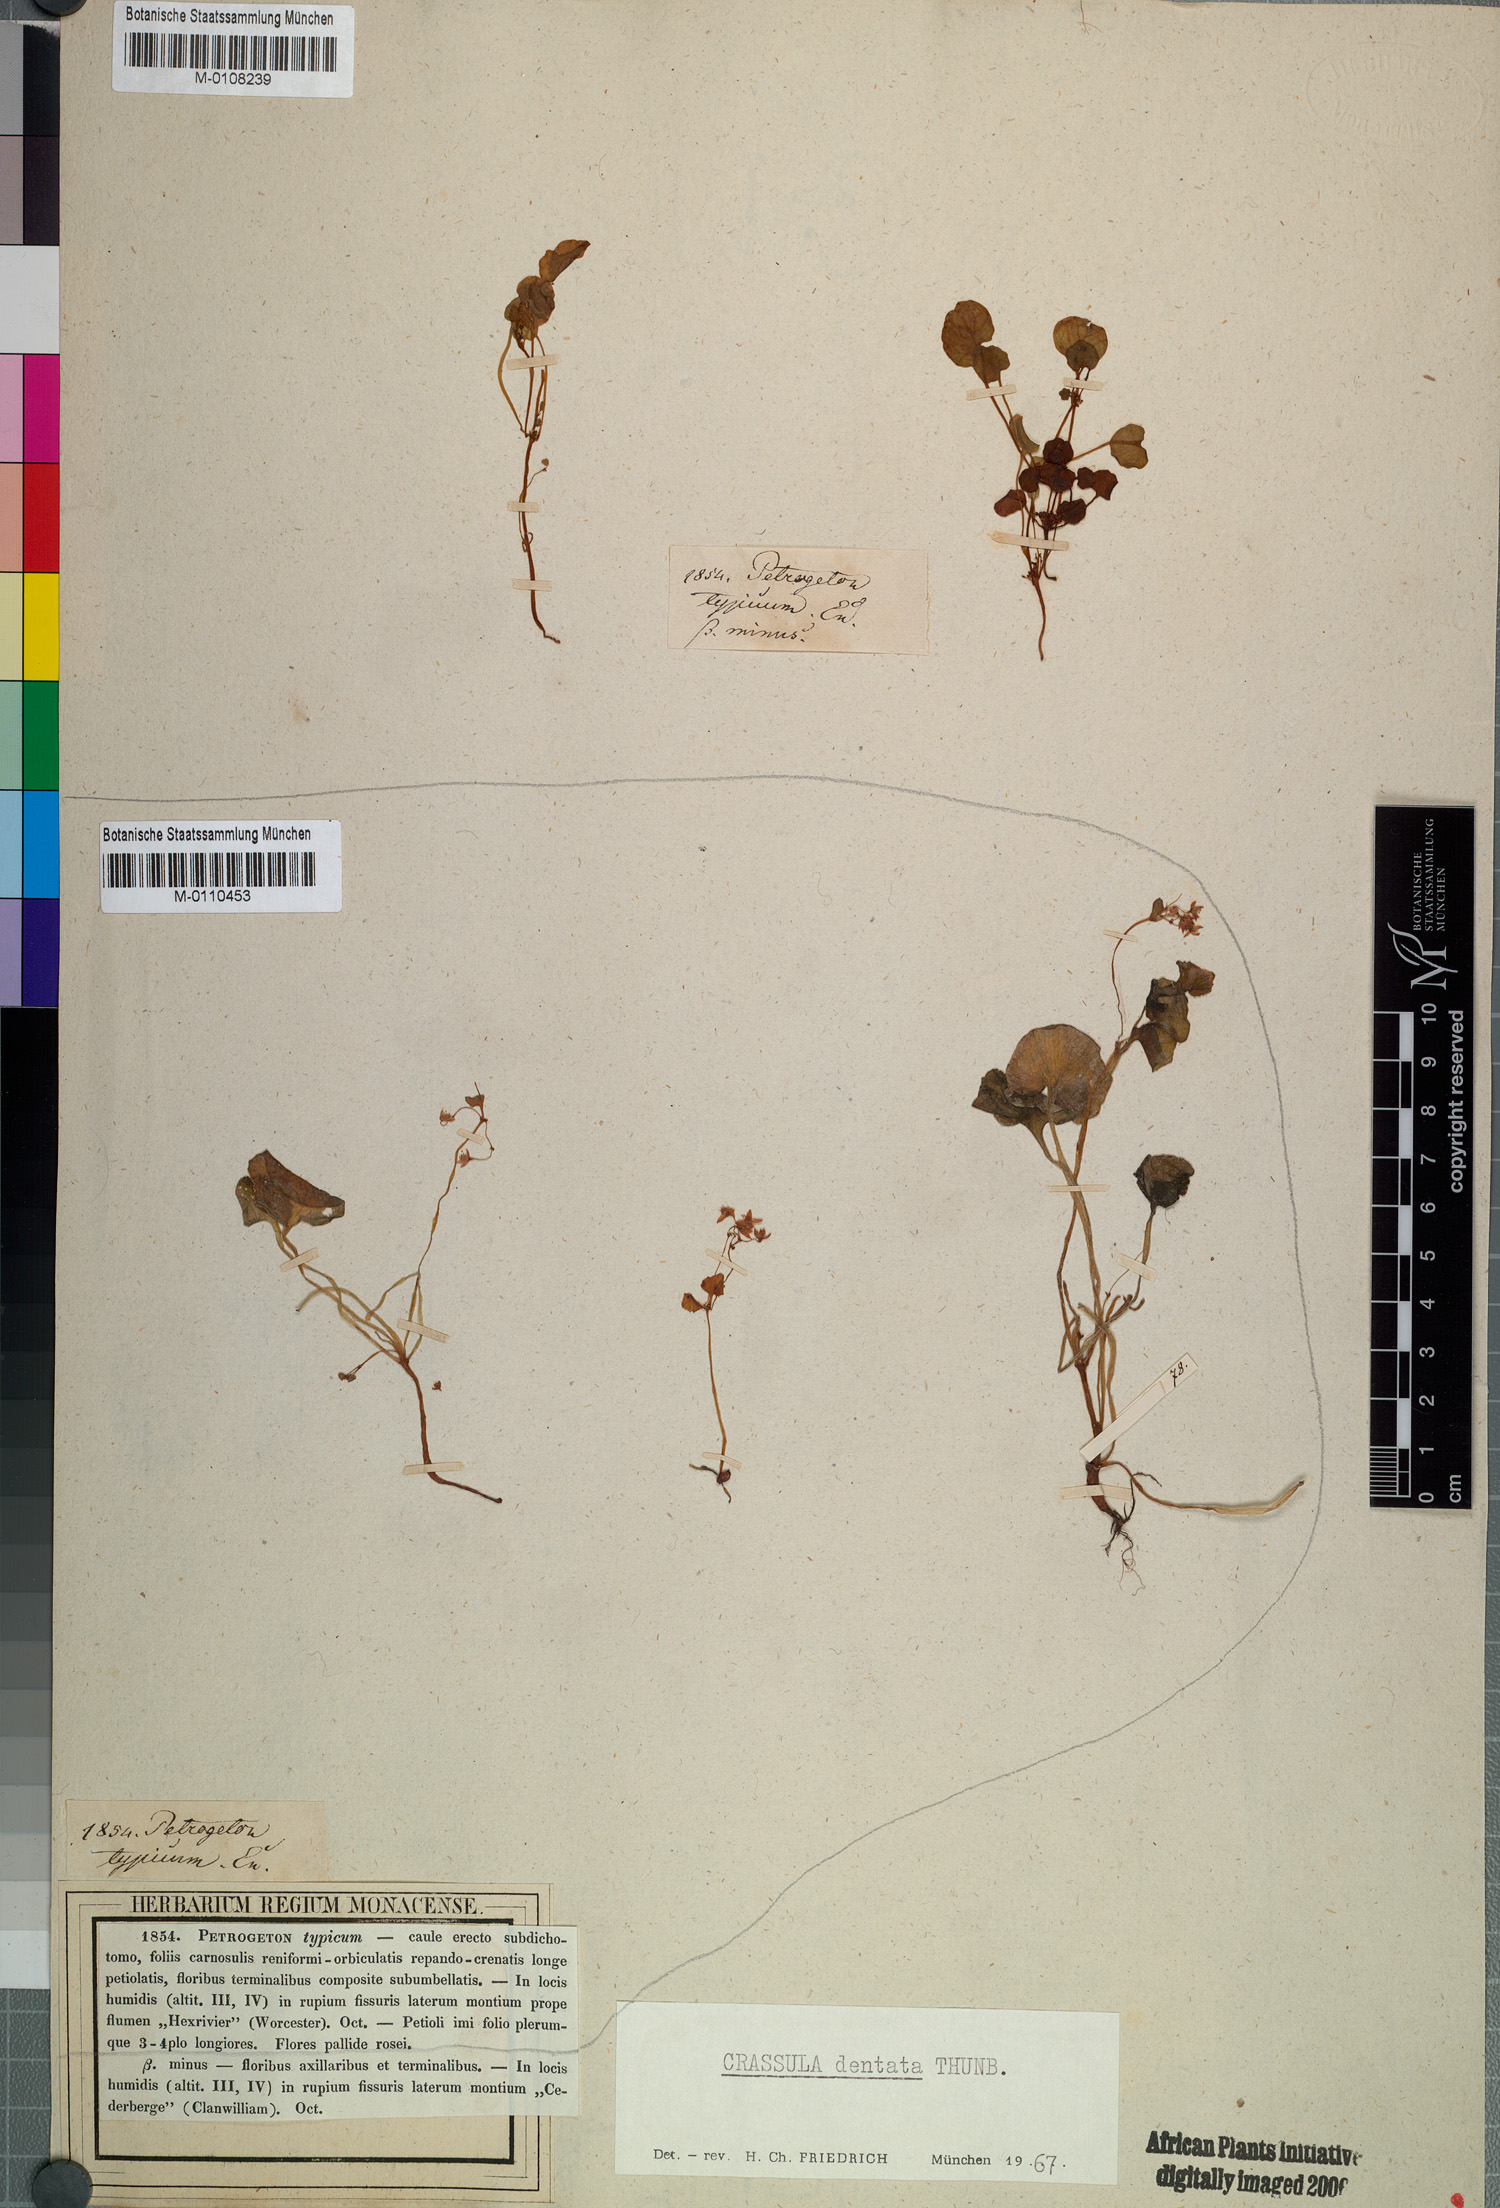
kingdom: Plantae
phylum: Tracheophyta
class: Magnoliopsida
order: Saxifragales
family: Crassulaceae
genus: Crassula
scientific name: Crassula dentata
